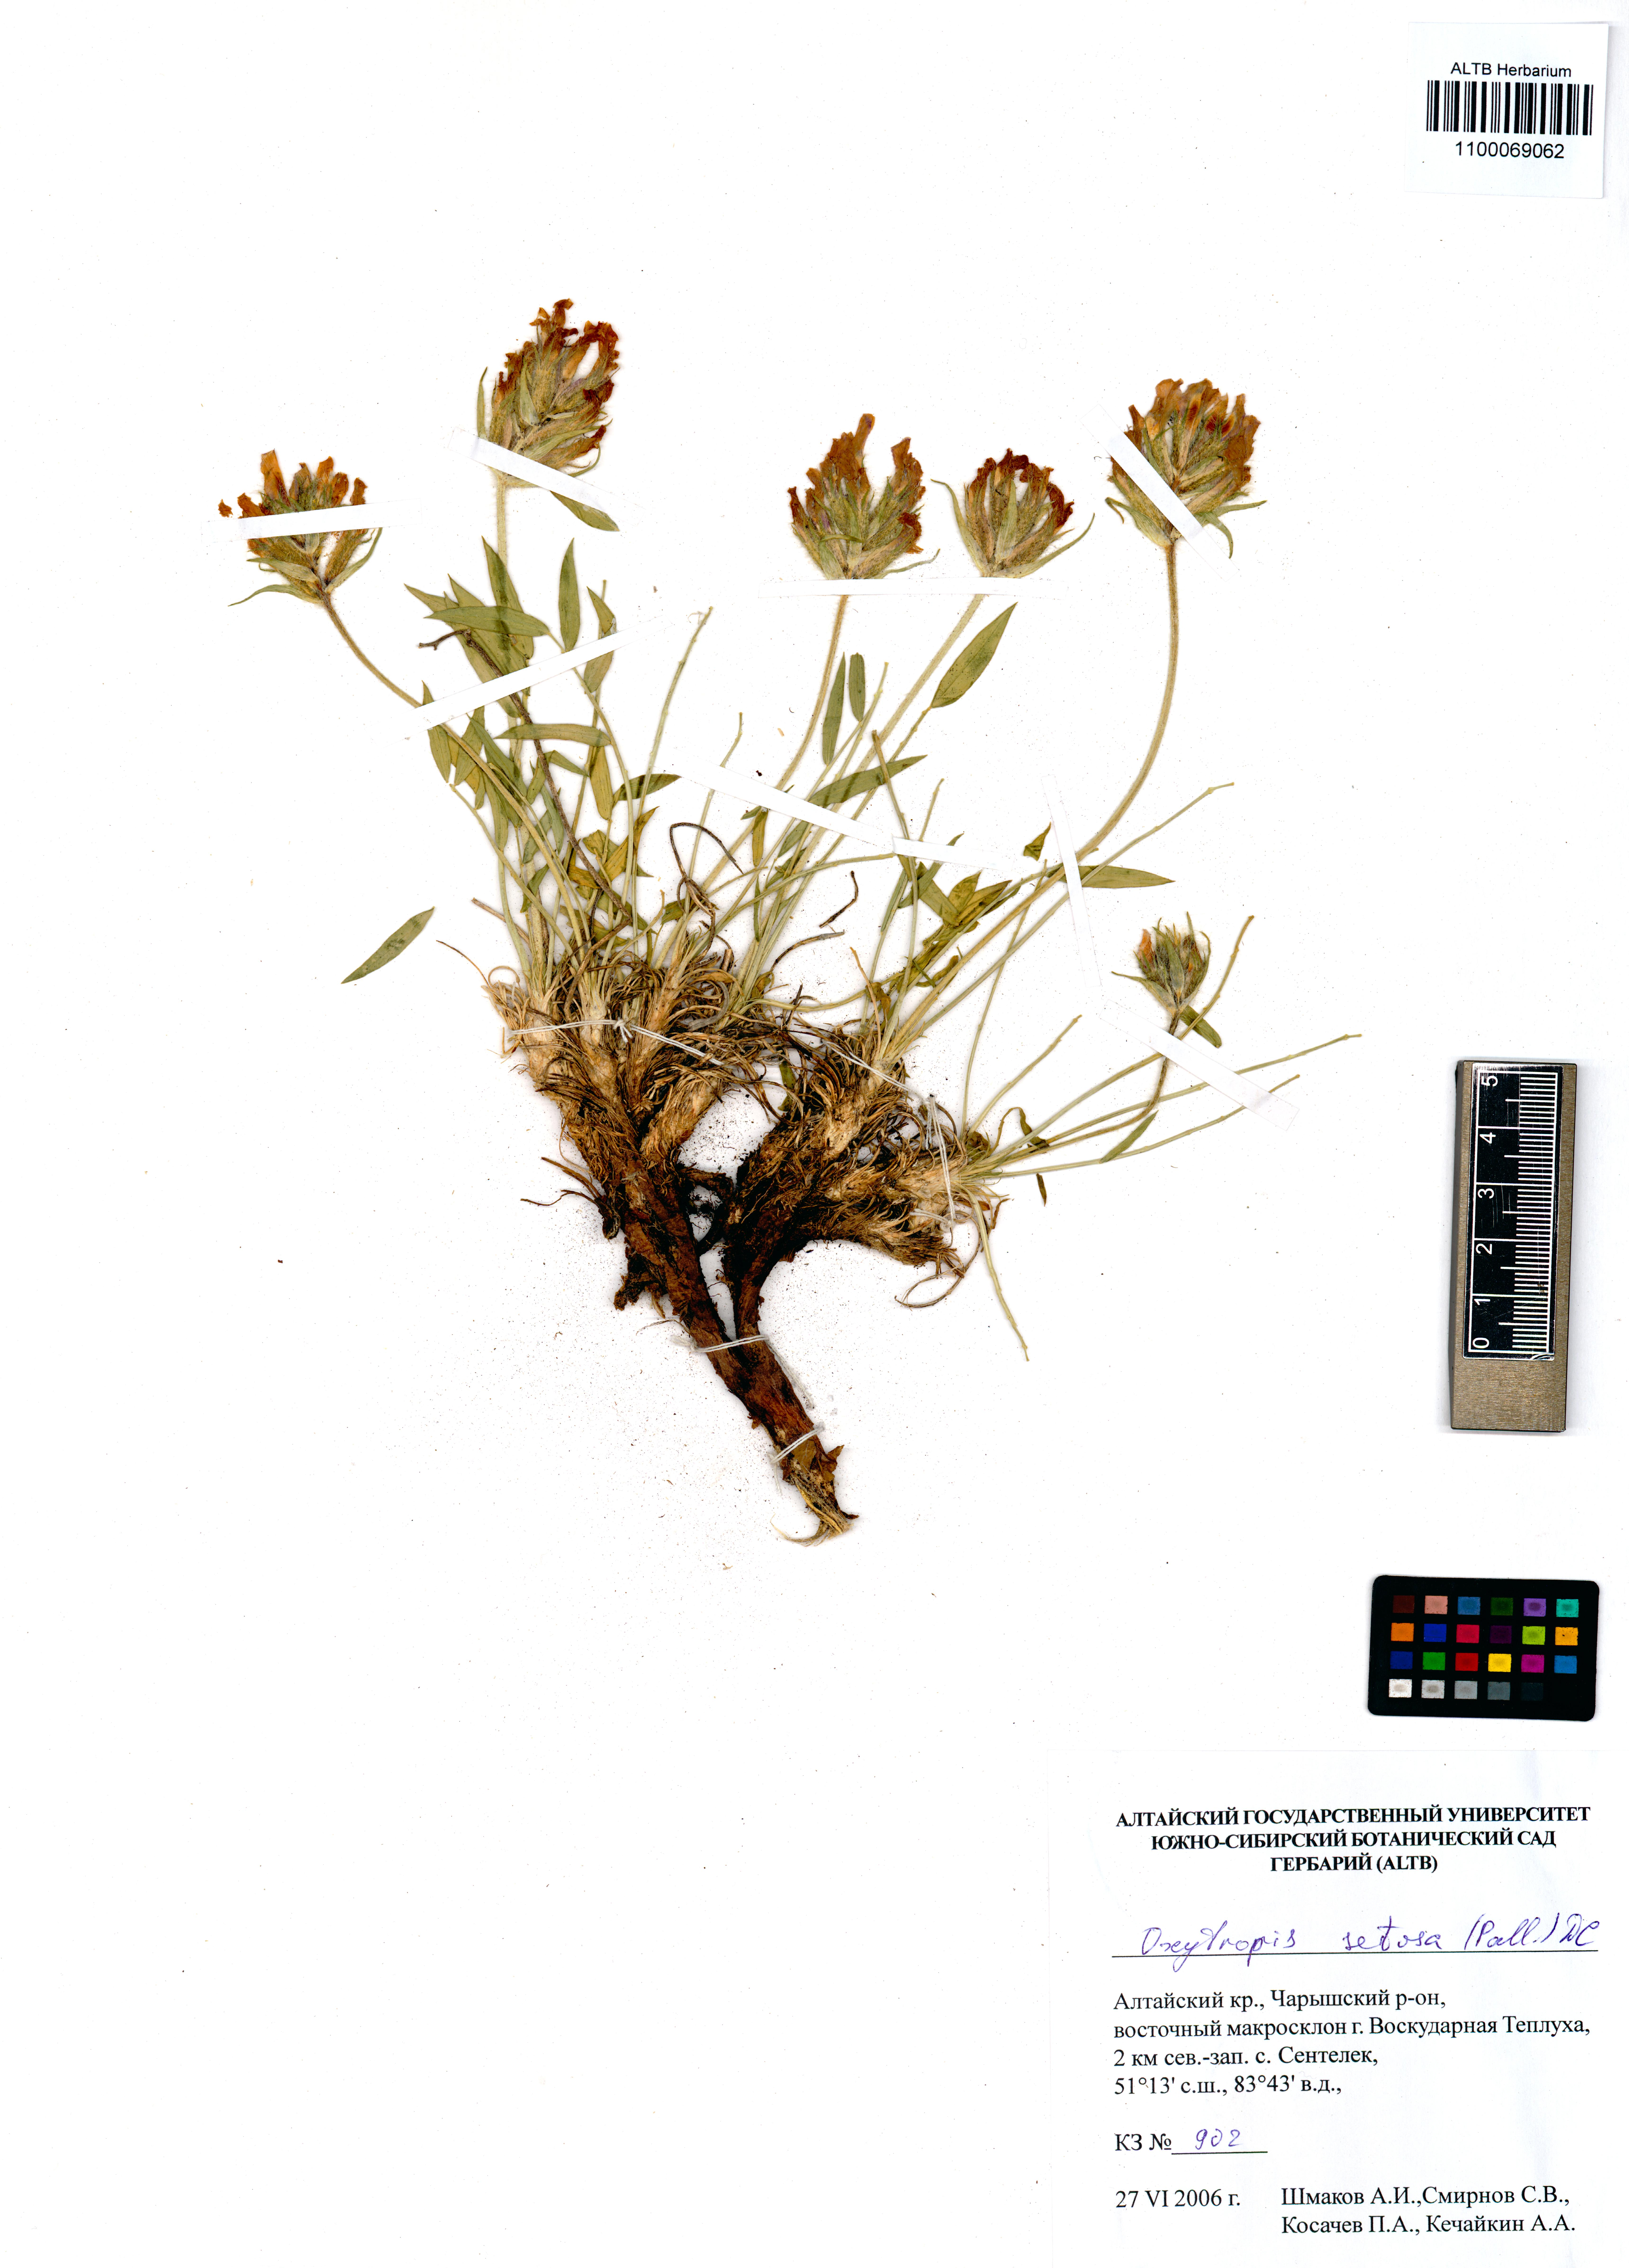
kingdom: Plantae
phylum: Tracheophyta
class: Magnoliopsida
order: Fabales
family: Fabaceae
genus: Oxytropis
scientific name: Oxytropis setosa
